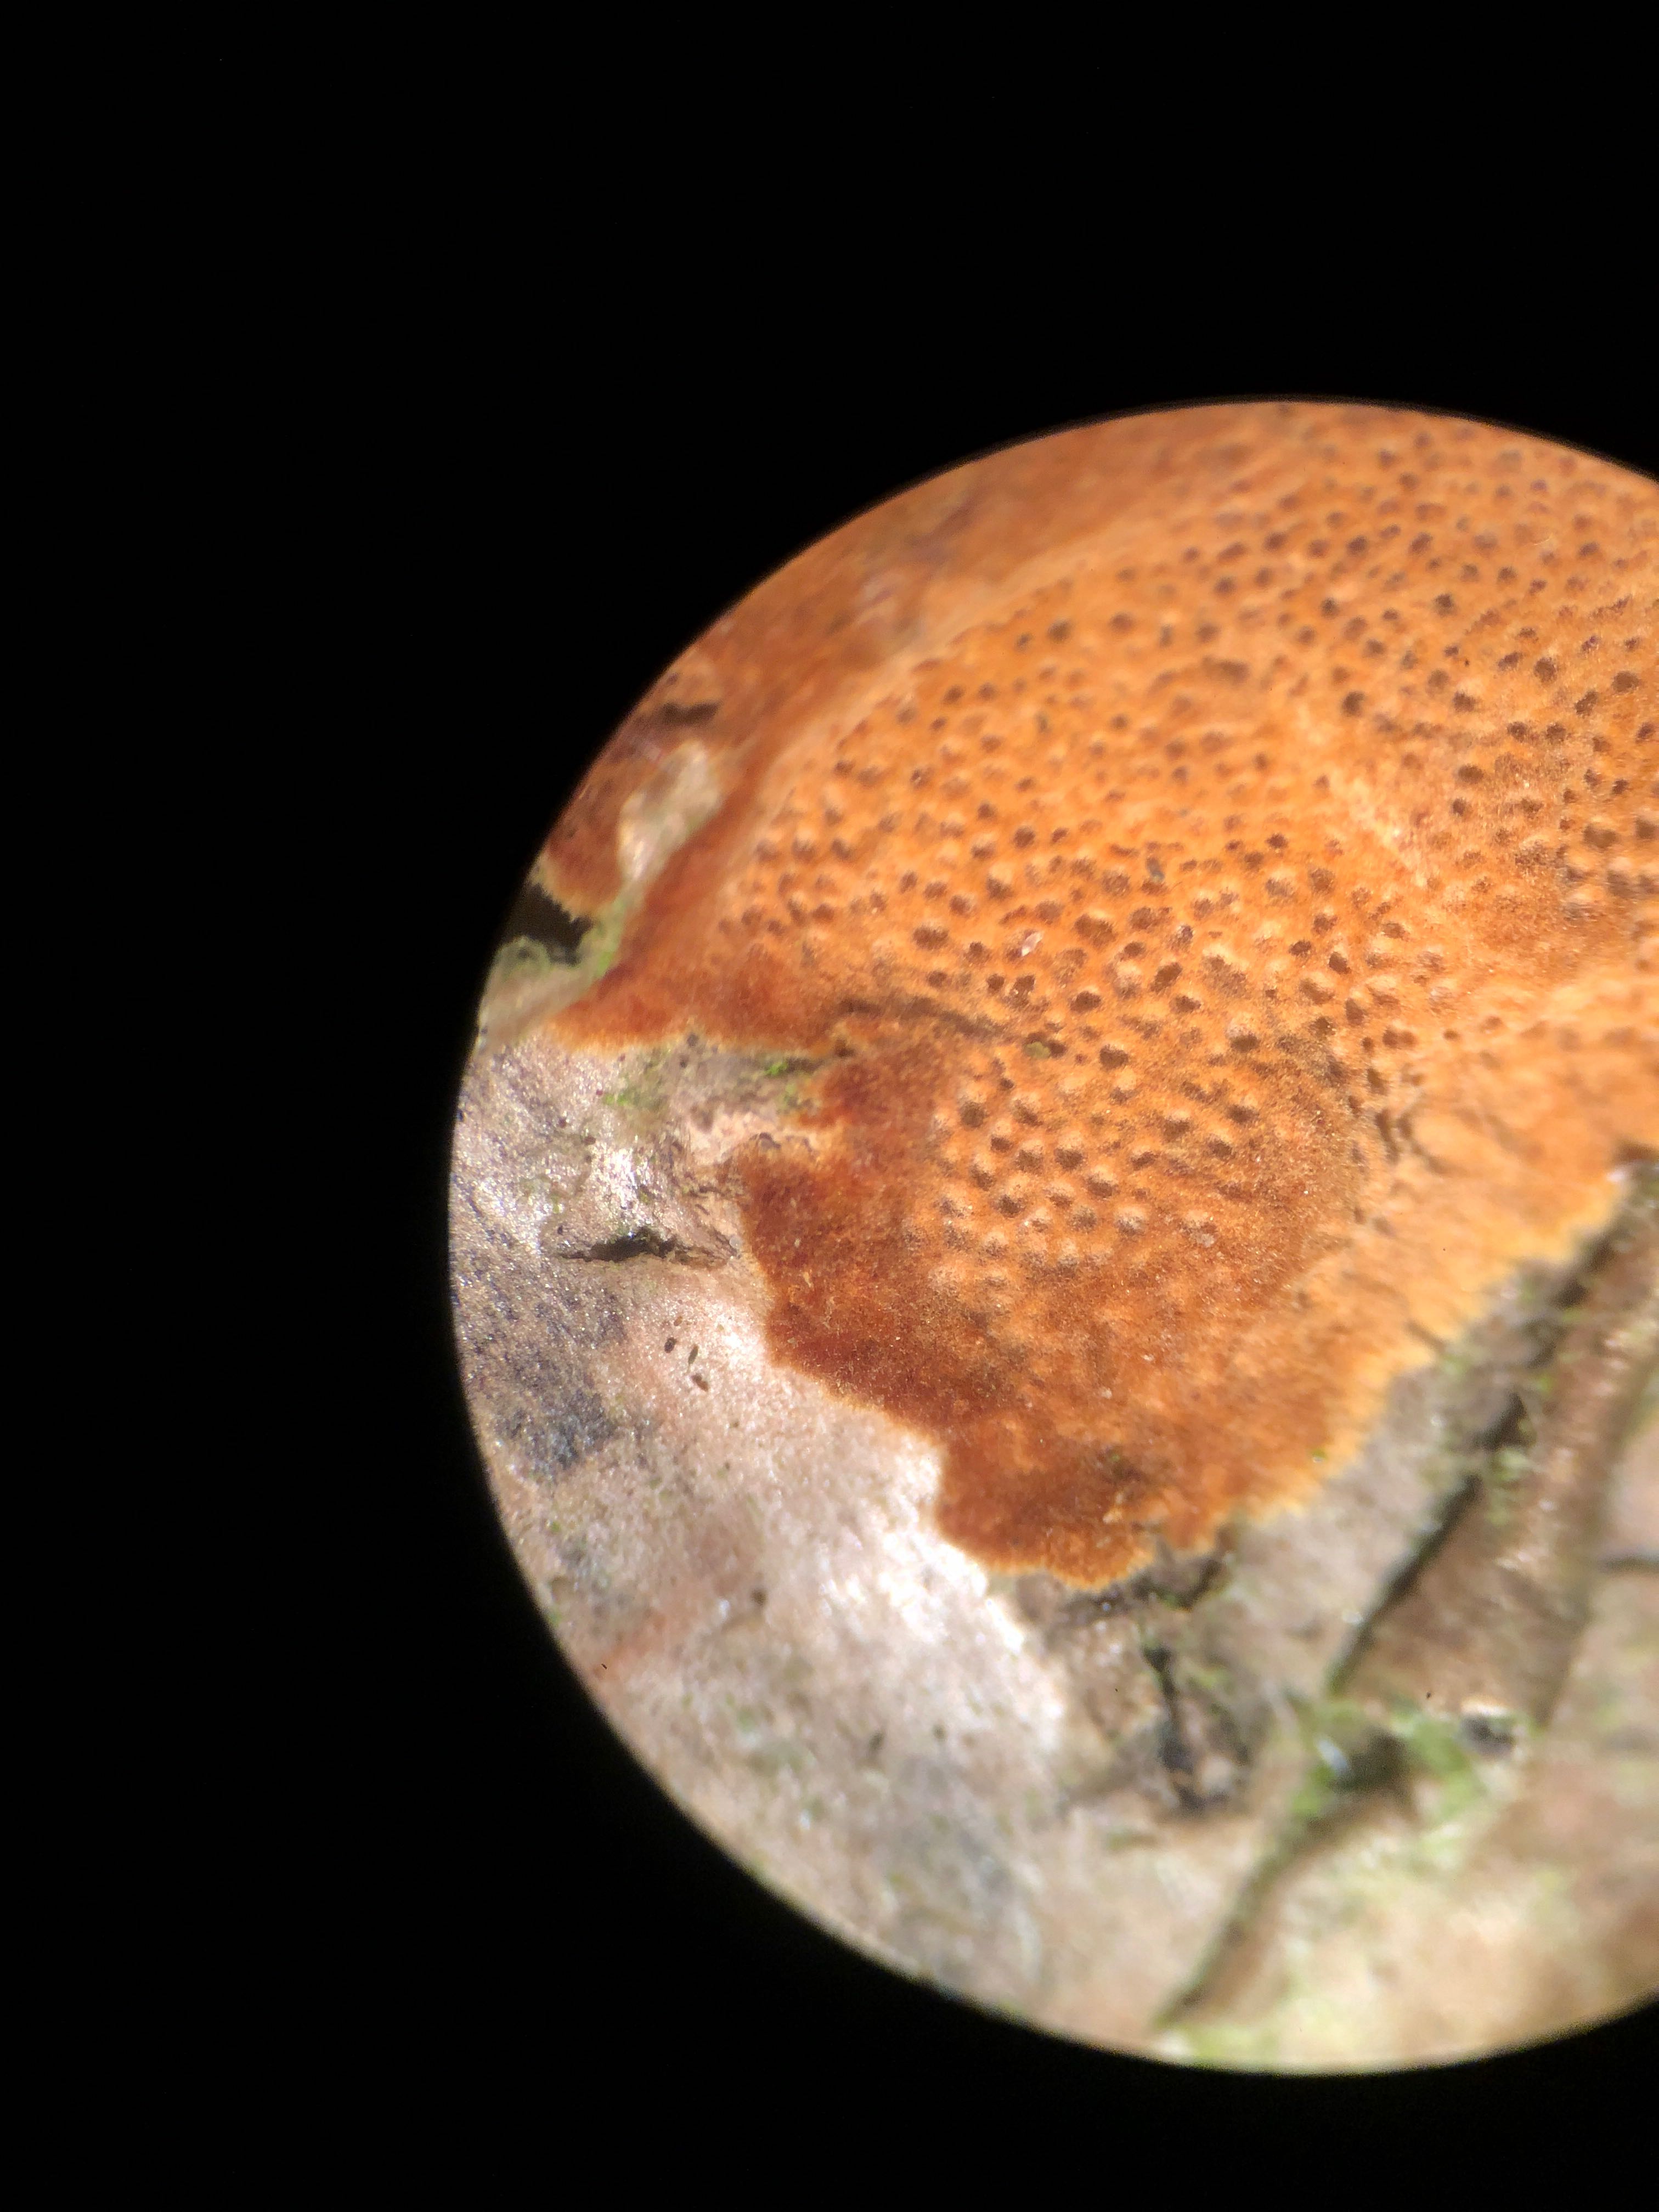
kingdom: Fungi
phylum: Basidiomycota
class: Agaricomycetes
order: Hymenochaetales
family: Hymenochaetaceae
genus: Fuscoporia
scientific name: Fuscoporia ferrea
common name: skorpe-ildporesvamp
